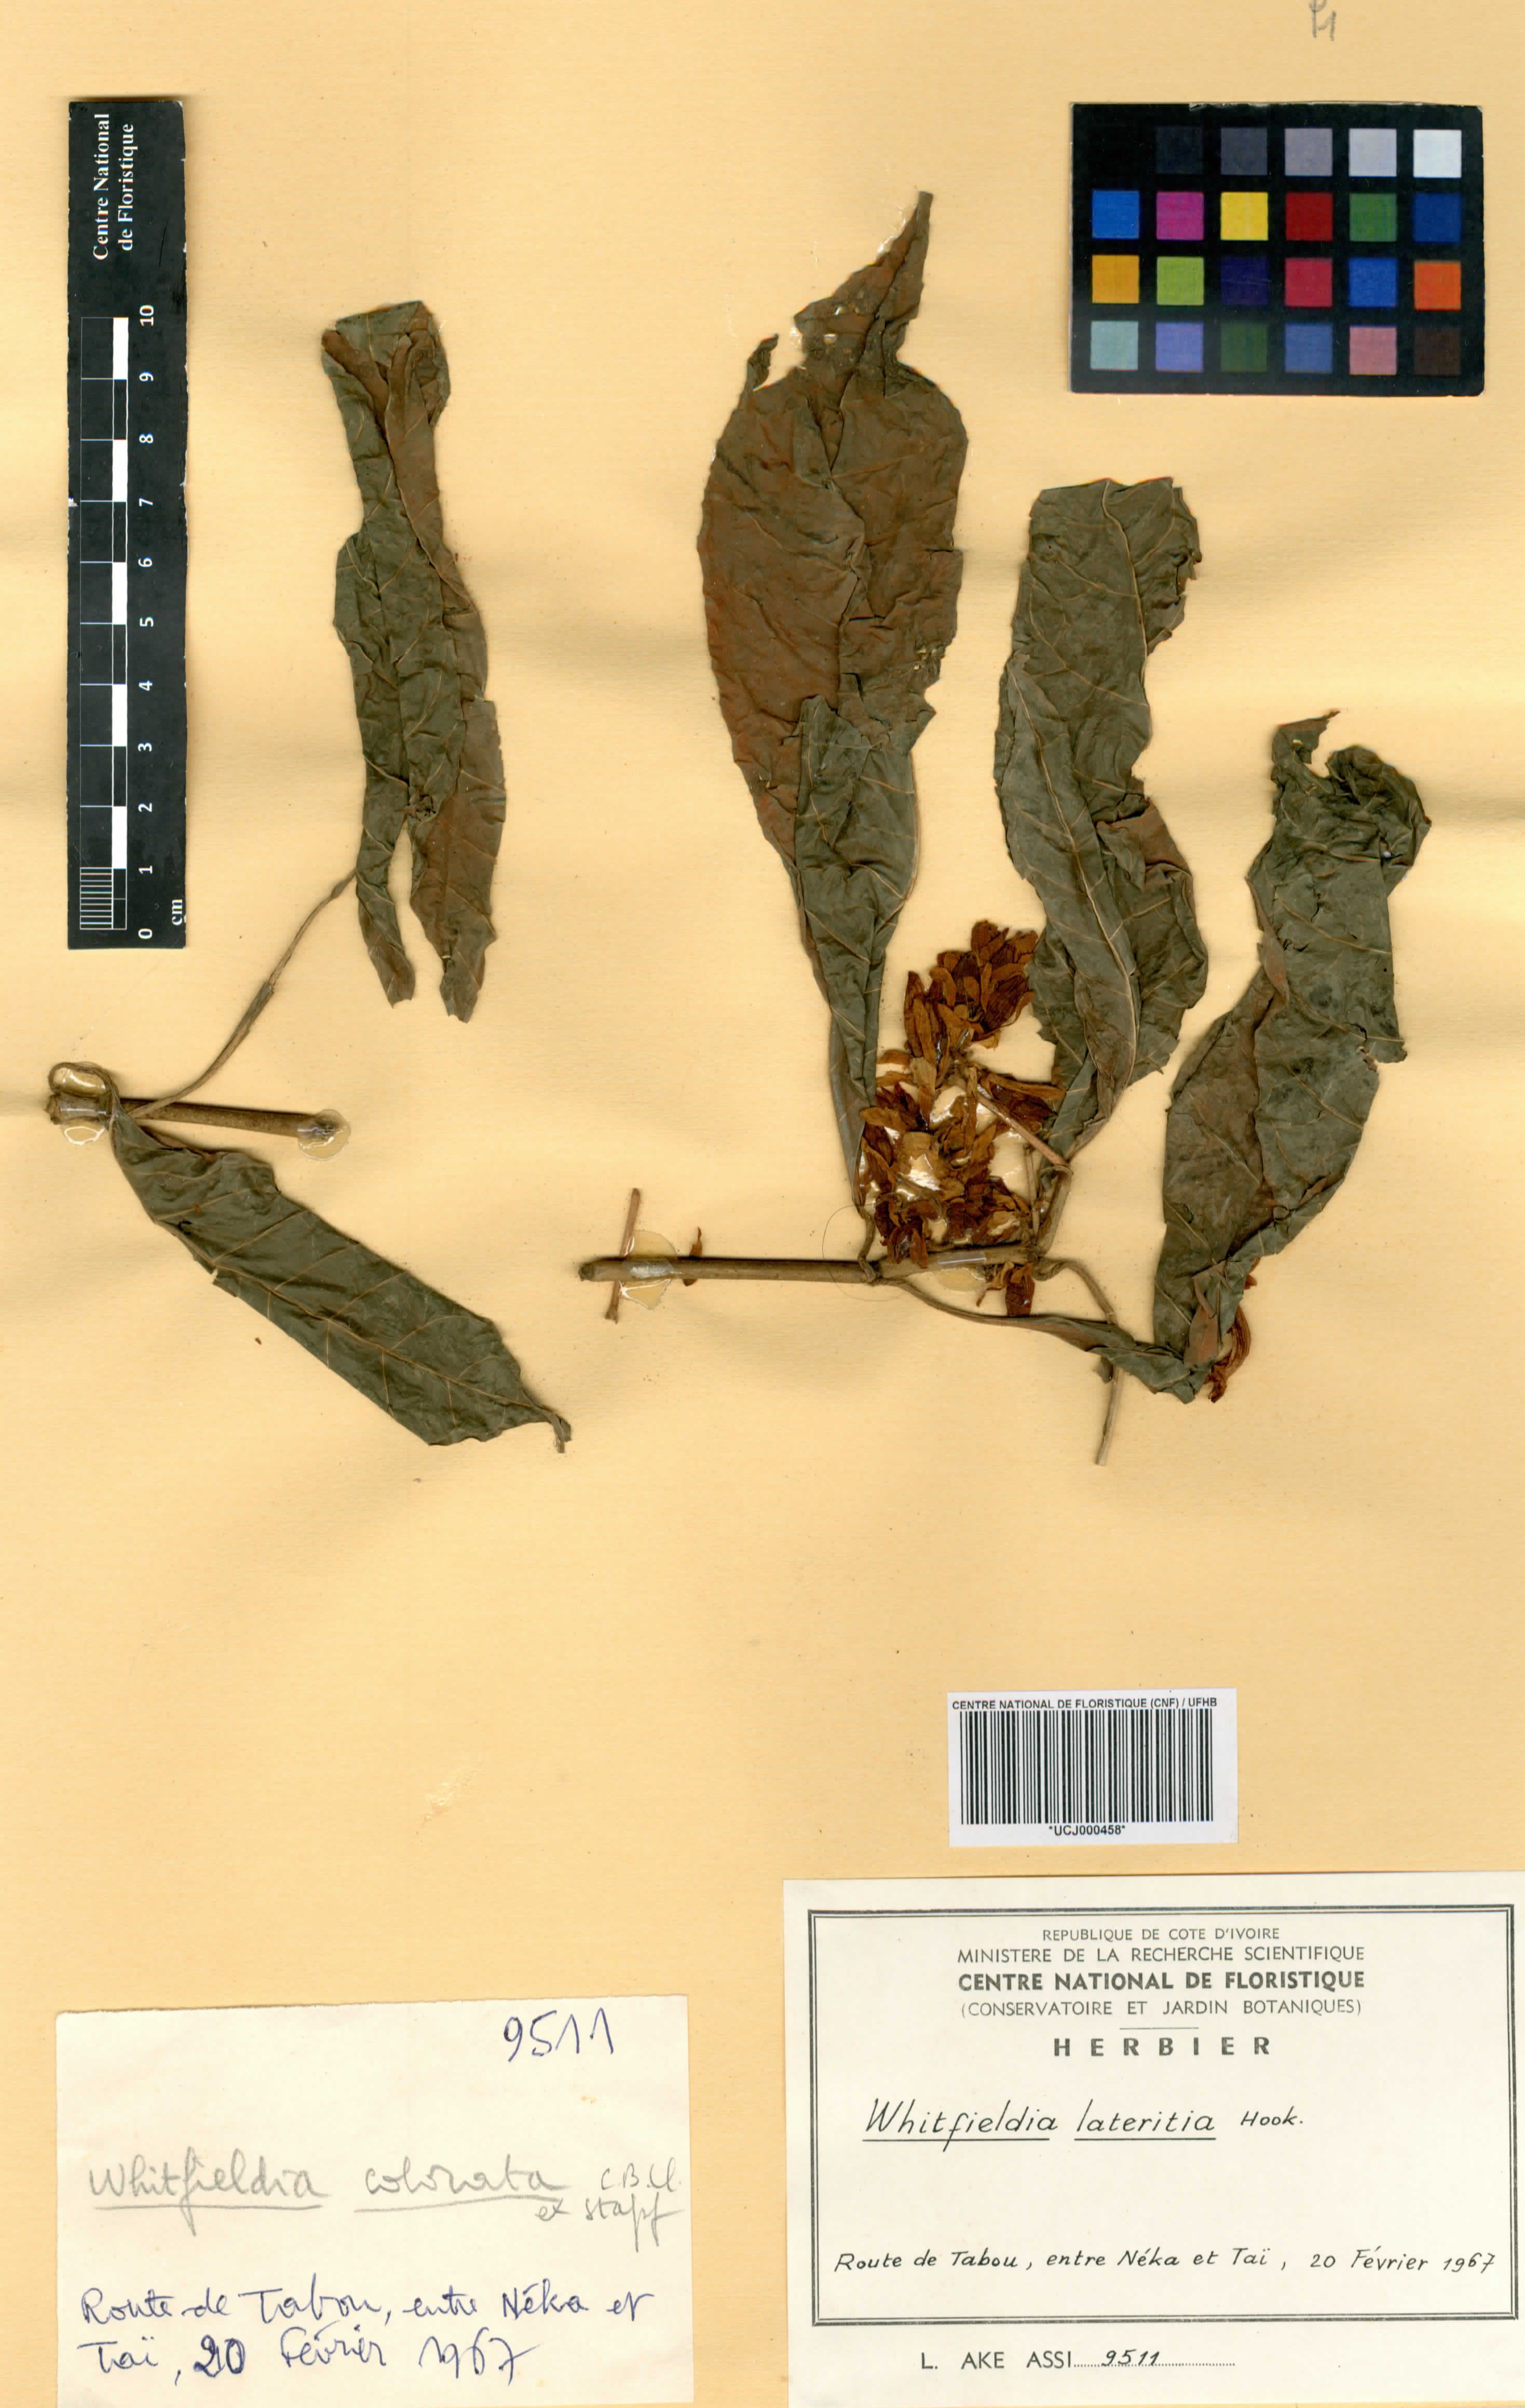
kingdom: Plantae
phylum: Tracheophyta
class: Magnoliopsida
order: Lamiales
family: Acanthaceae
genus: Whitfieldia
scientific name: Whitfieldia lateritia
